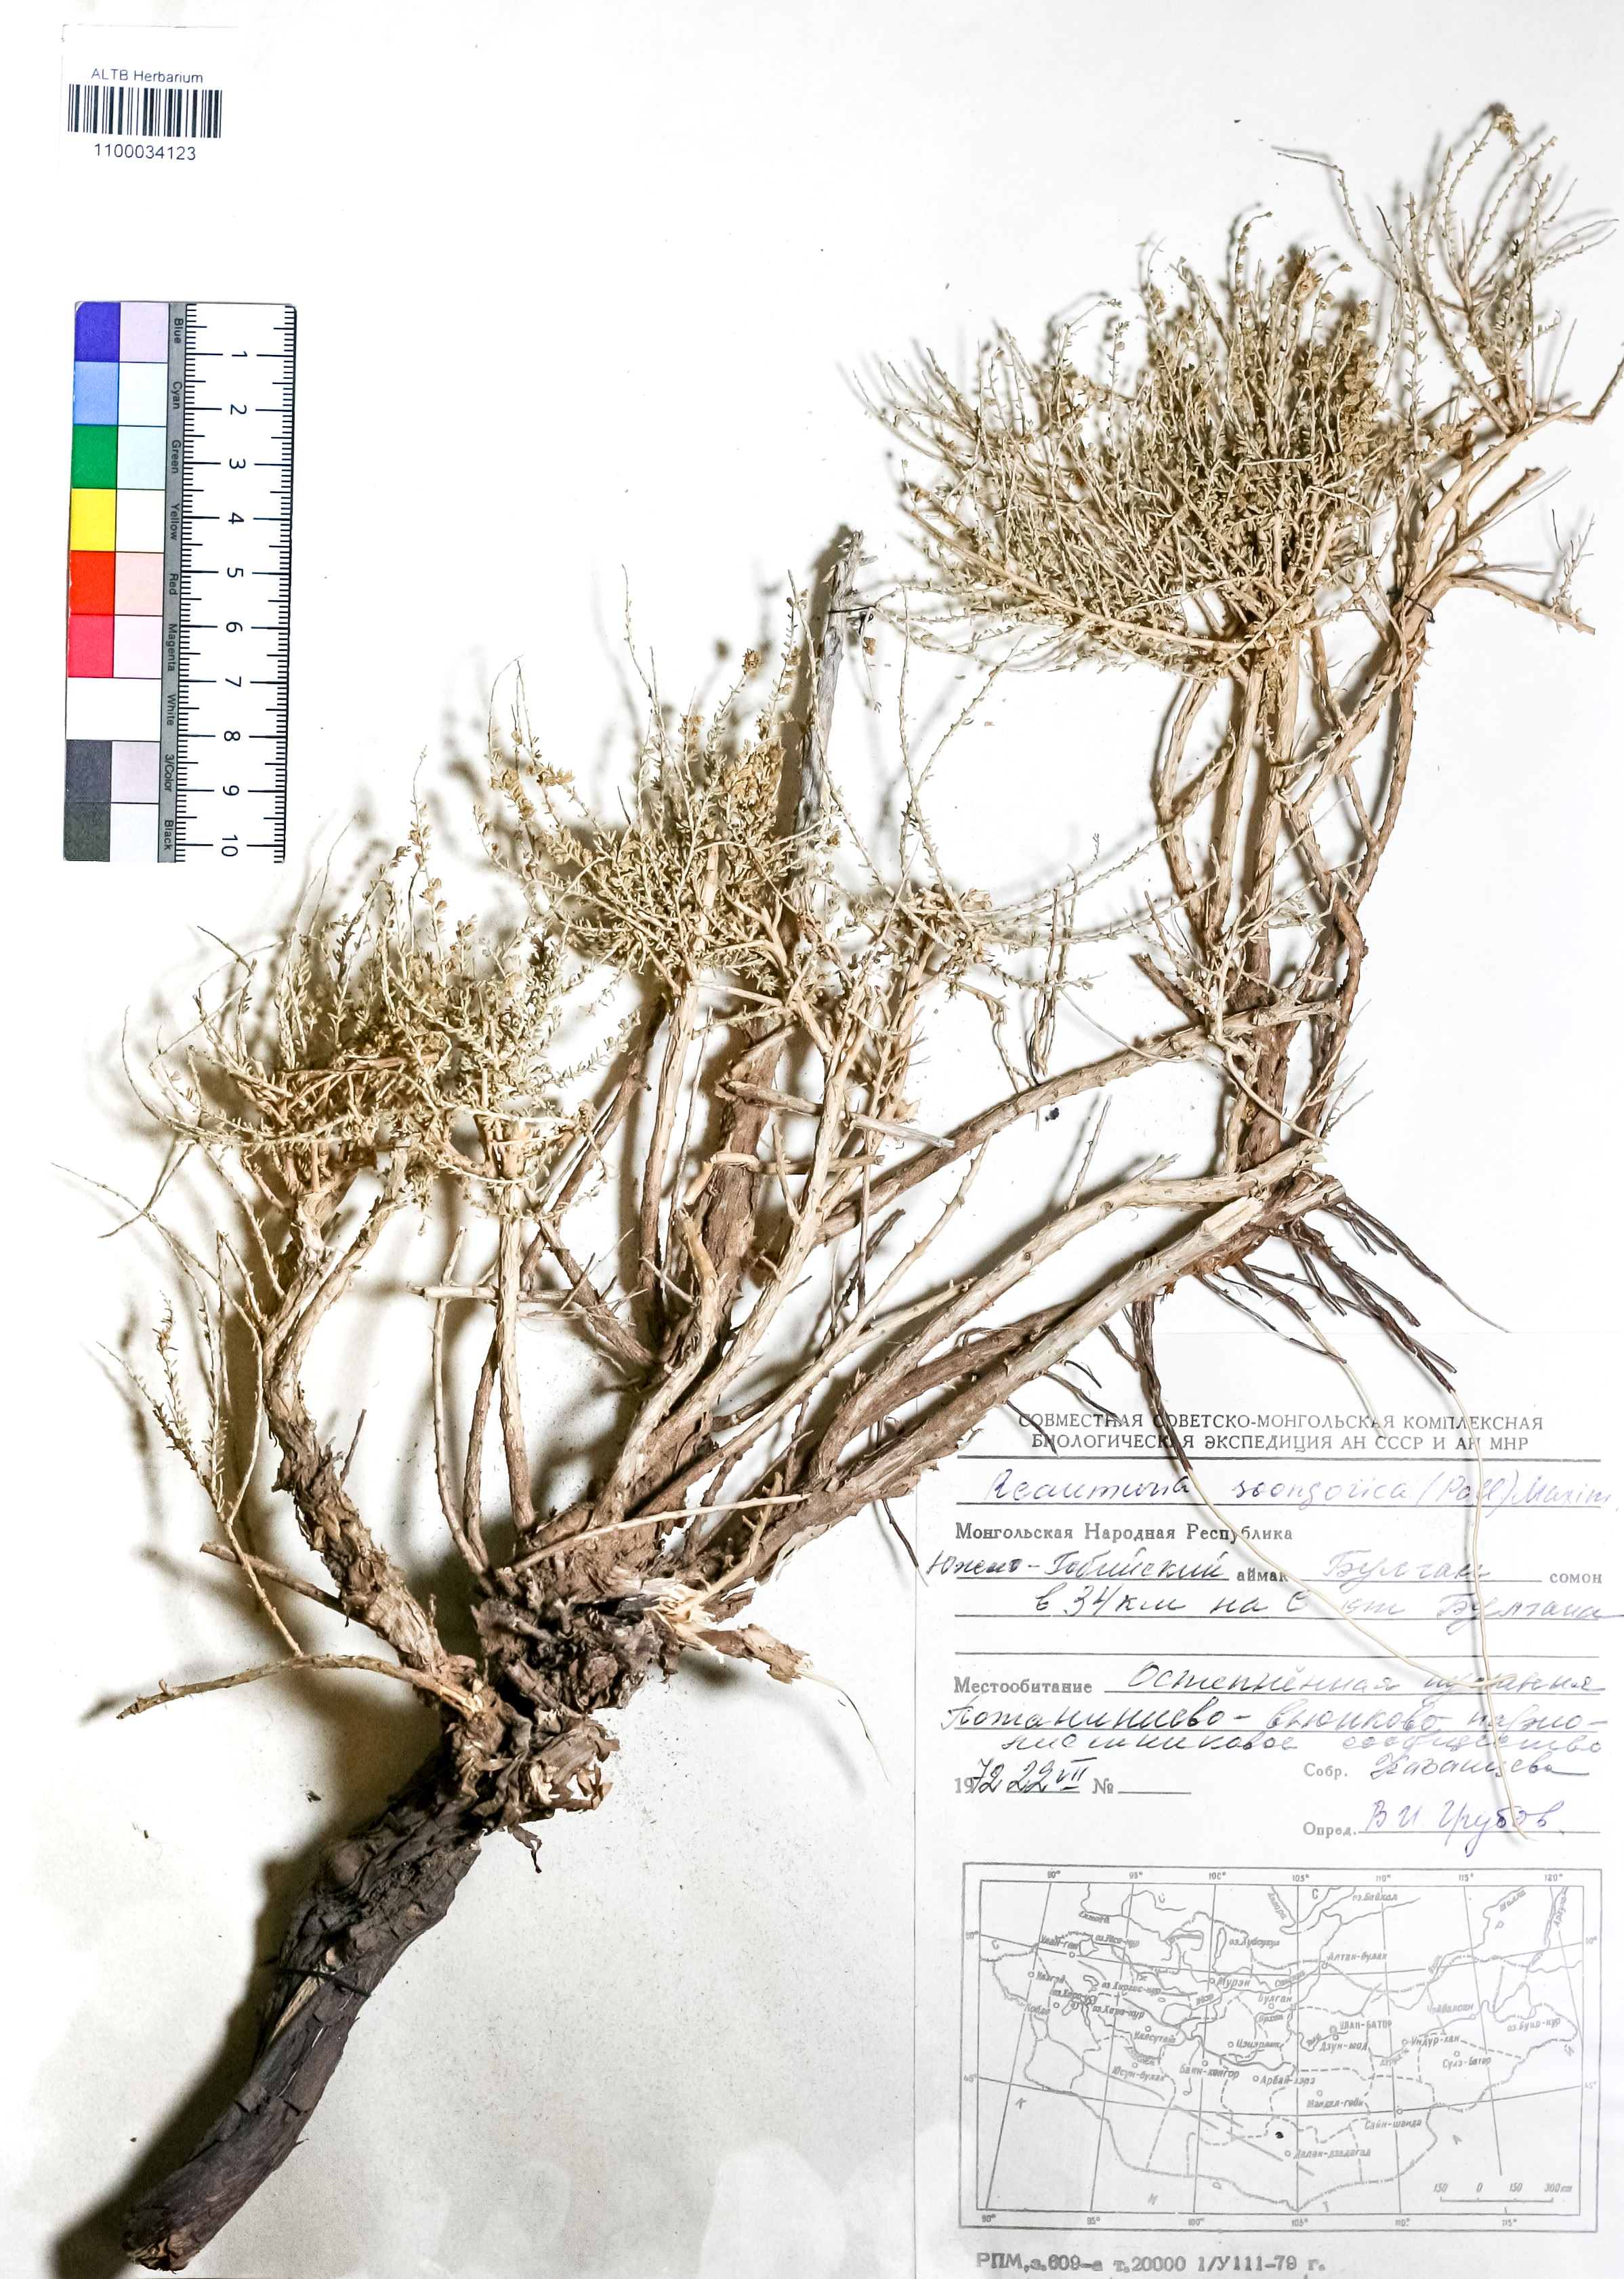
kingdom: Plantae
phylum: Tracheophyta
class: Magnoliopsida
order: Caryophyllales
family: Tamaricaceae
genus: Reaumuria
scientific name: Reaumuria songarica
